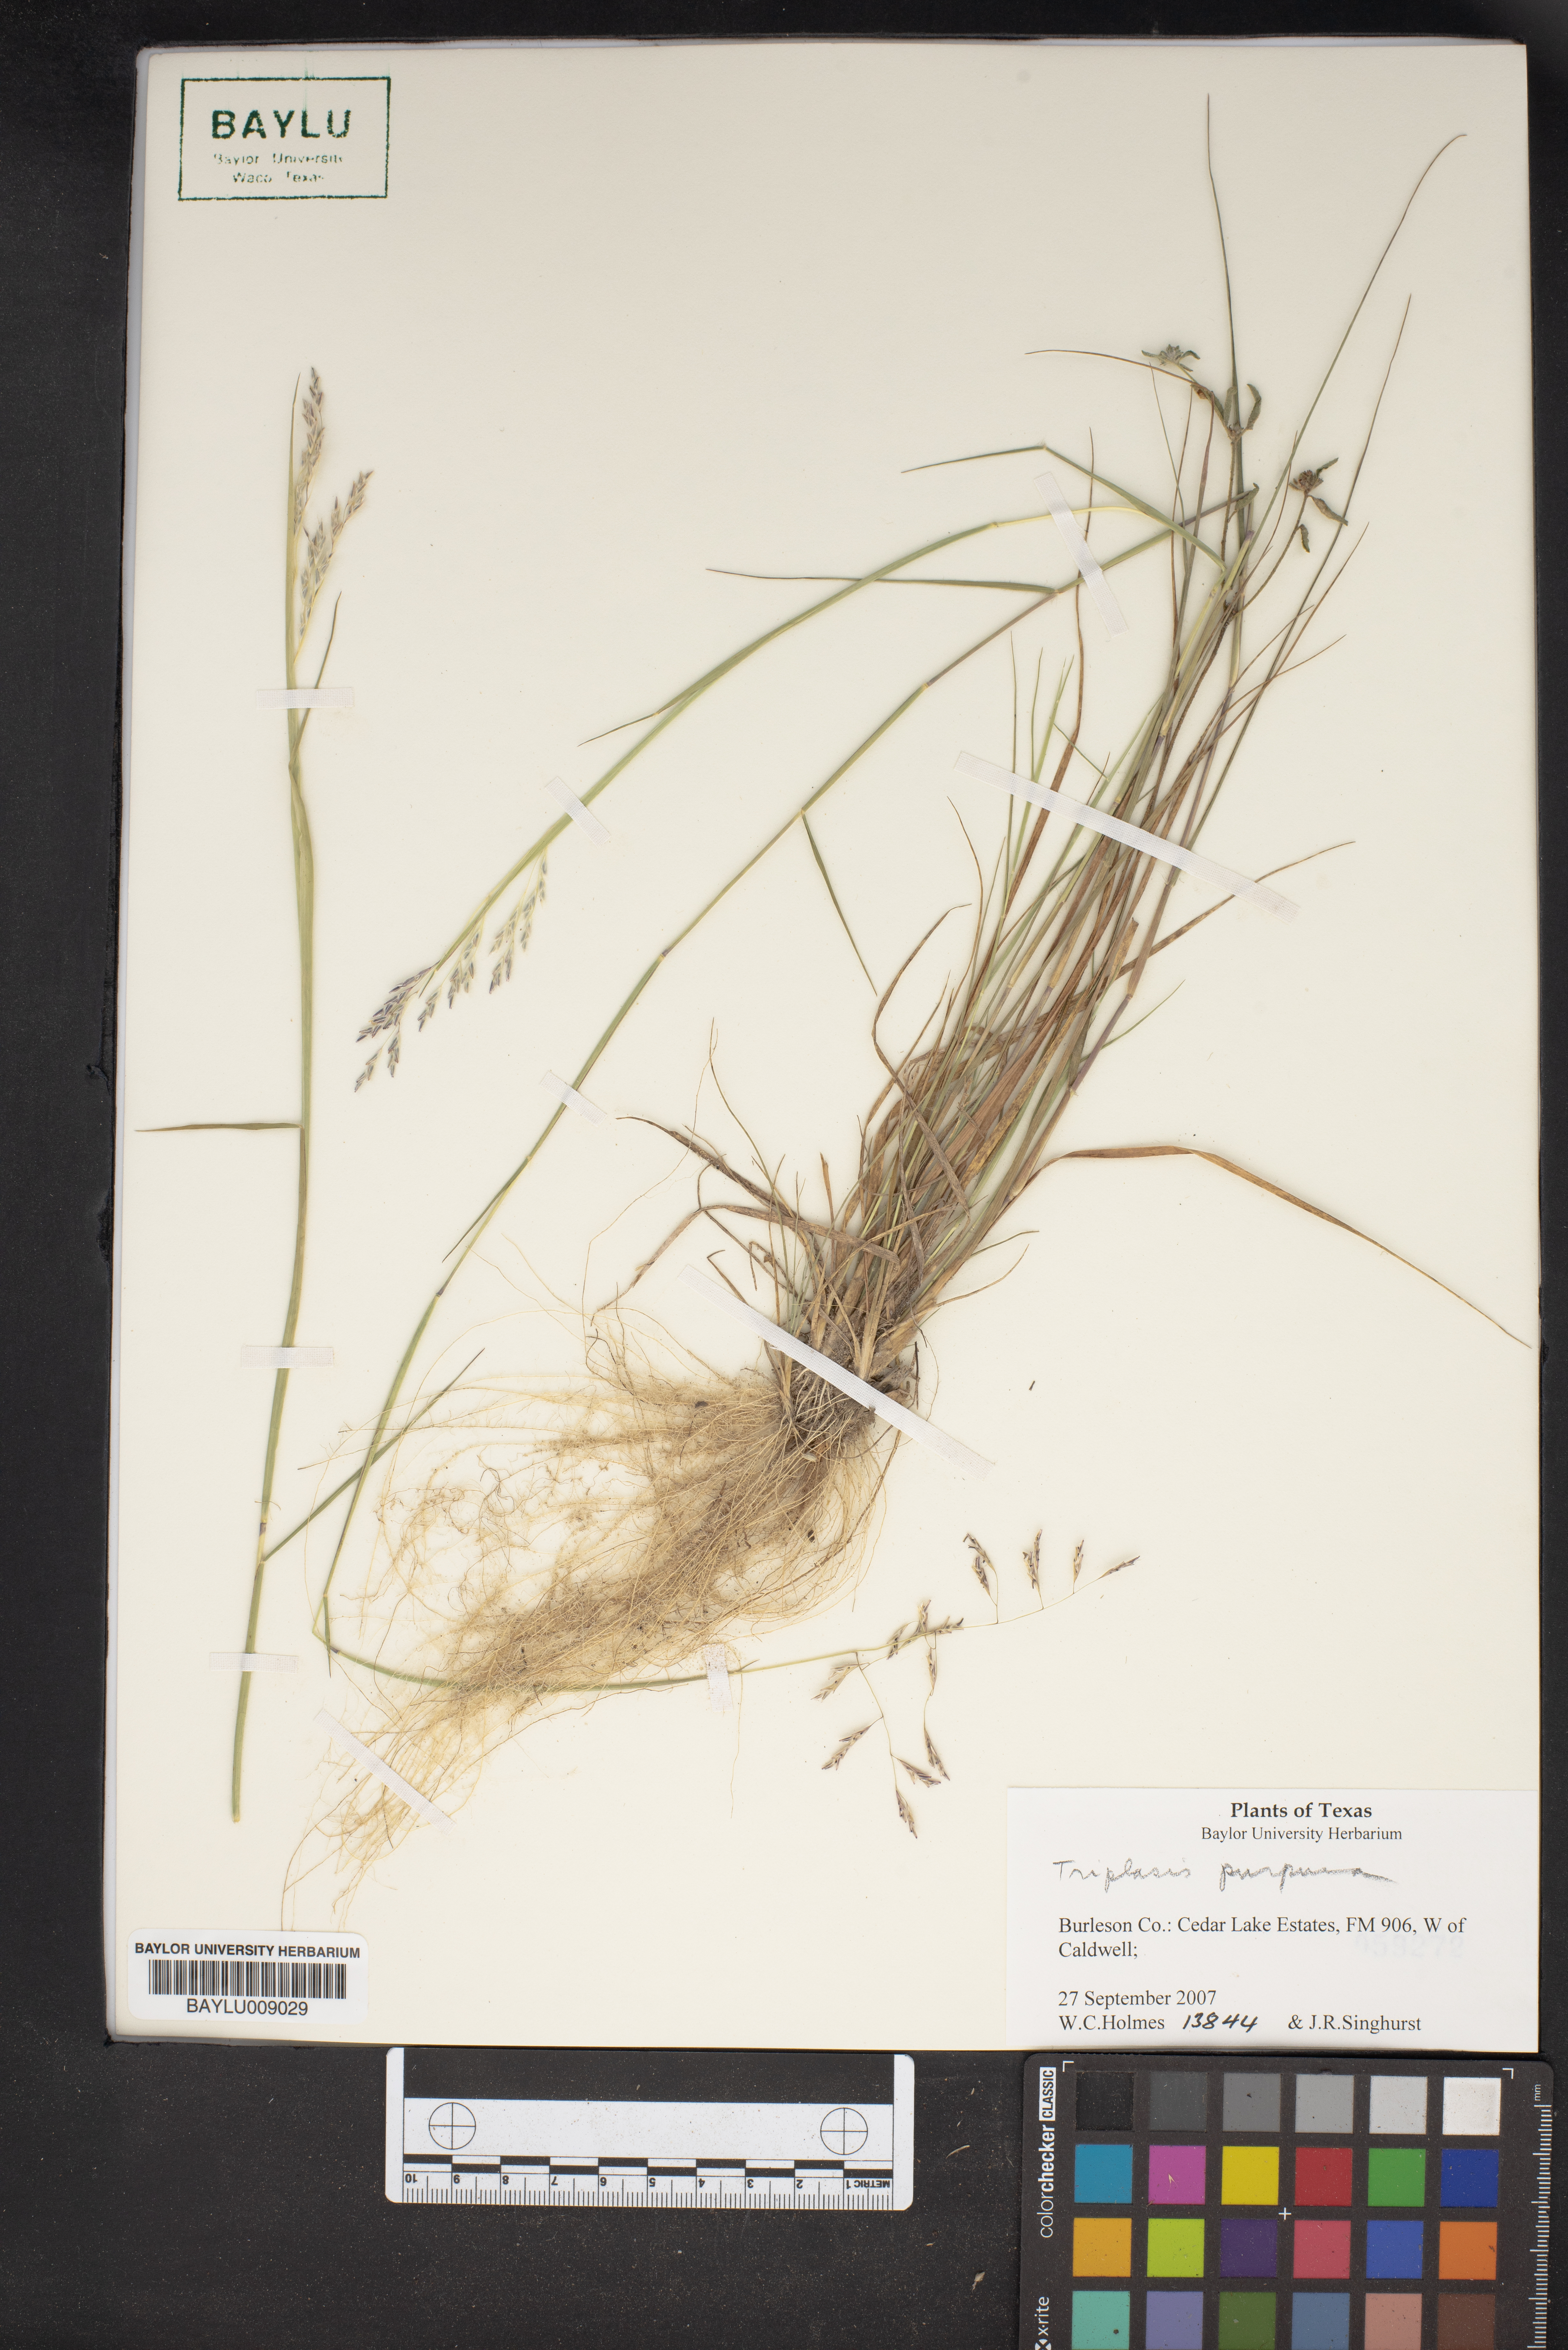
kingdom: Plantae
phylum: Tracheophyta
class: Liliopsida
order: Poales
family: Poaceae
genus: Triplasis
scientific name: Triplasis purpurea
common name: Purple sand grass
